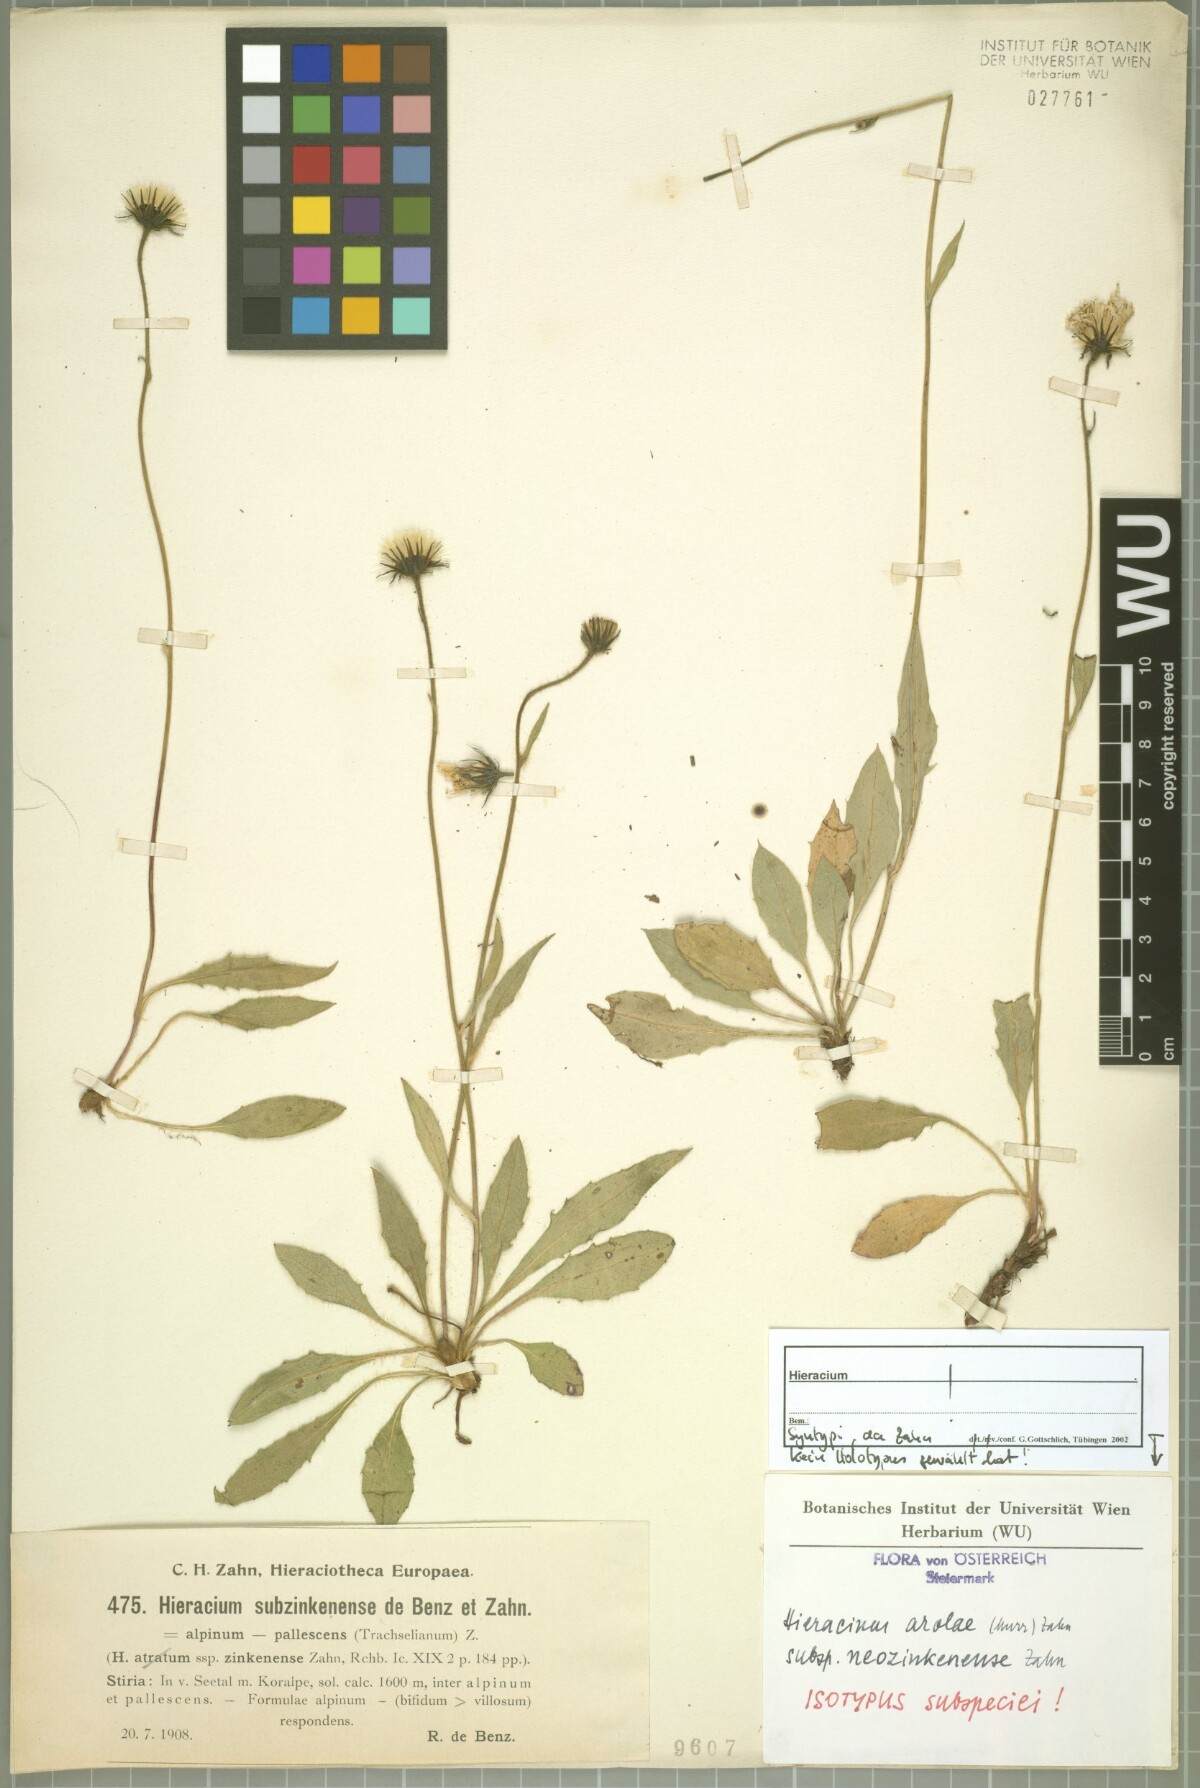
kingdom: Plantae
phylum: Tracheophyta
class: Magnoliopsida
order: Asterales
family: Asteraceae
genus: Hieracium
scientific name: Hieracium arolae
